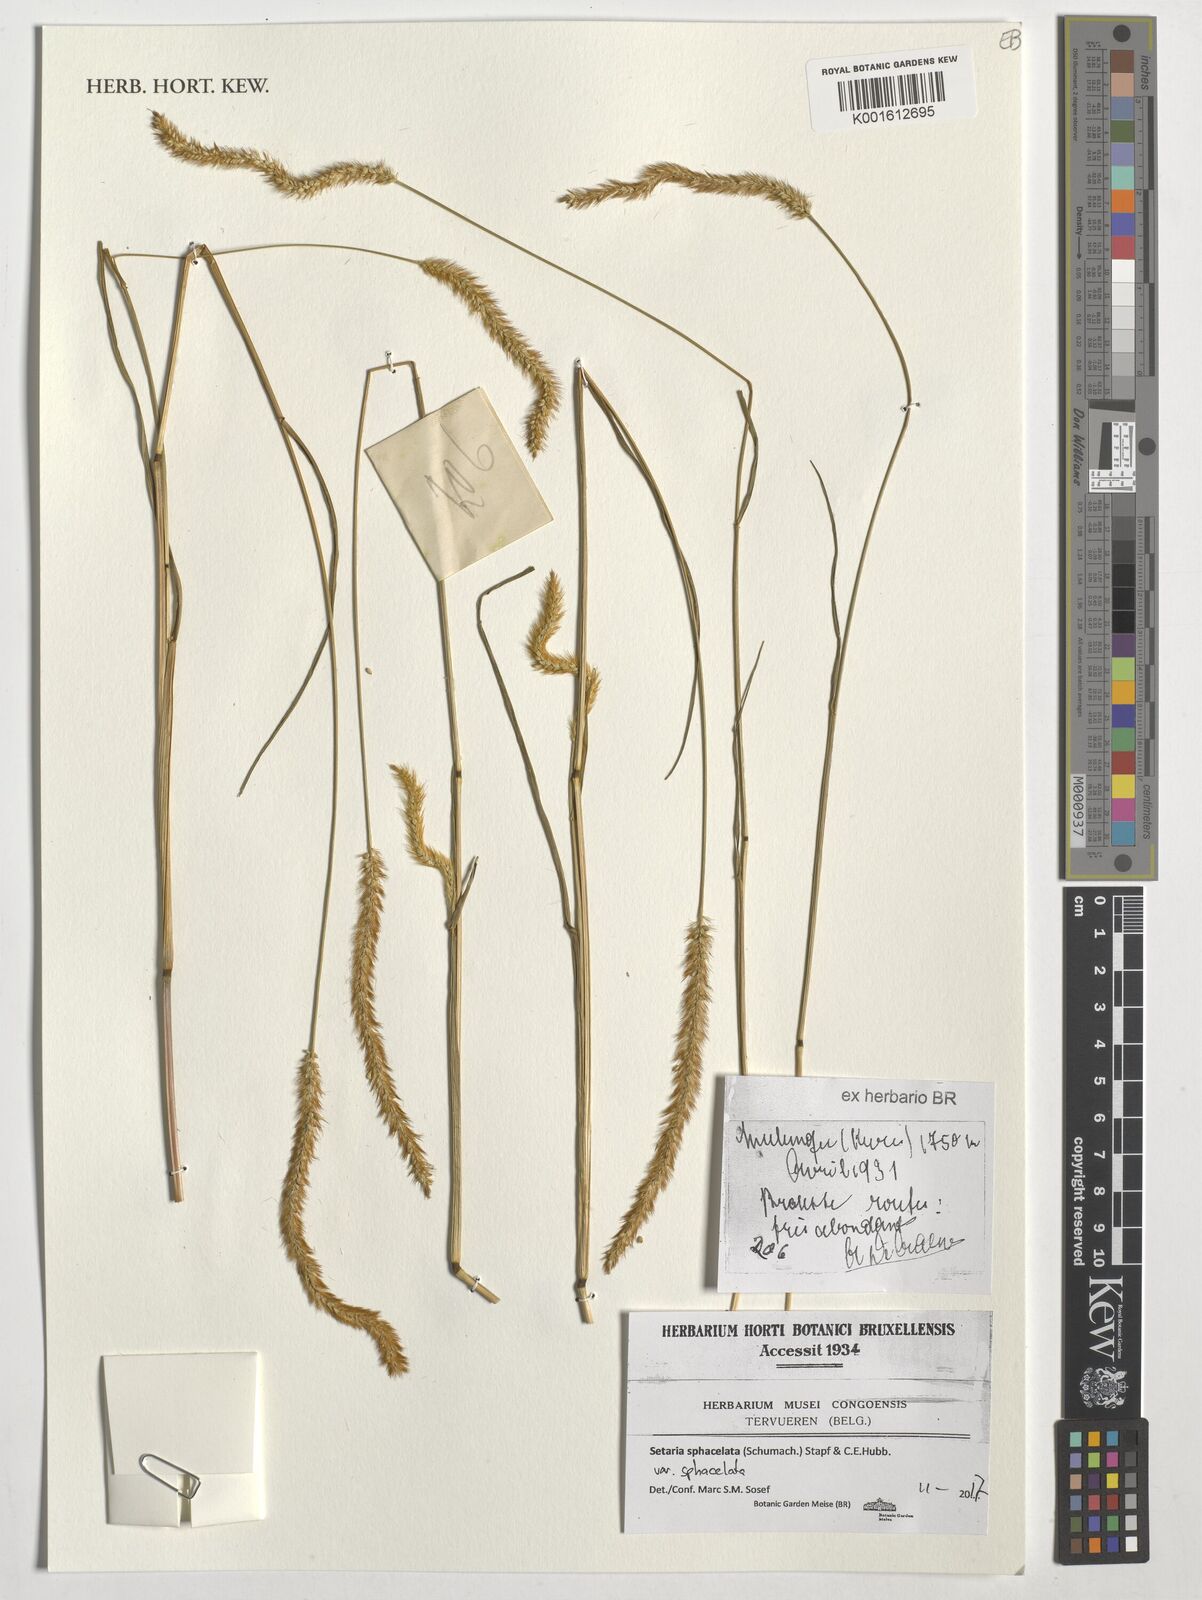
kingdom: Plantae
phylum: Tracheophyta
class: Liliopsida
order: Poales
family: Poaceae
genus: Setaria
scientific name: Setaria sphacelata
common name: African bristlegrass
